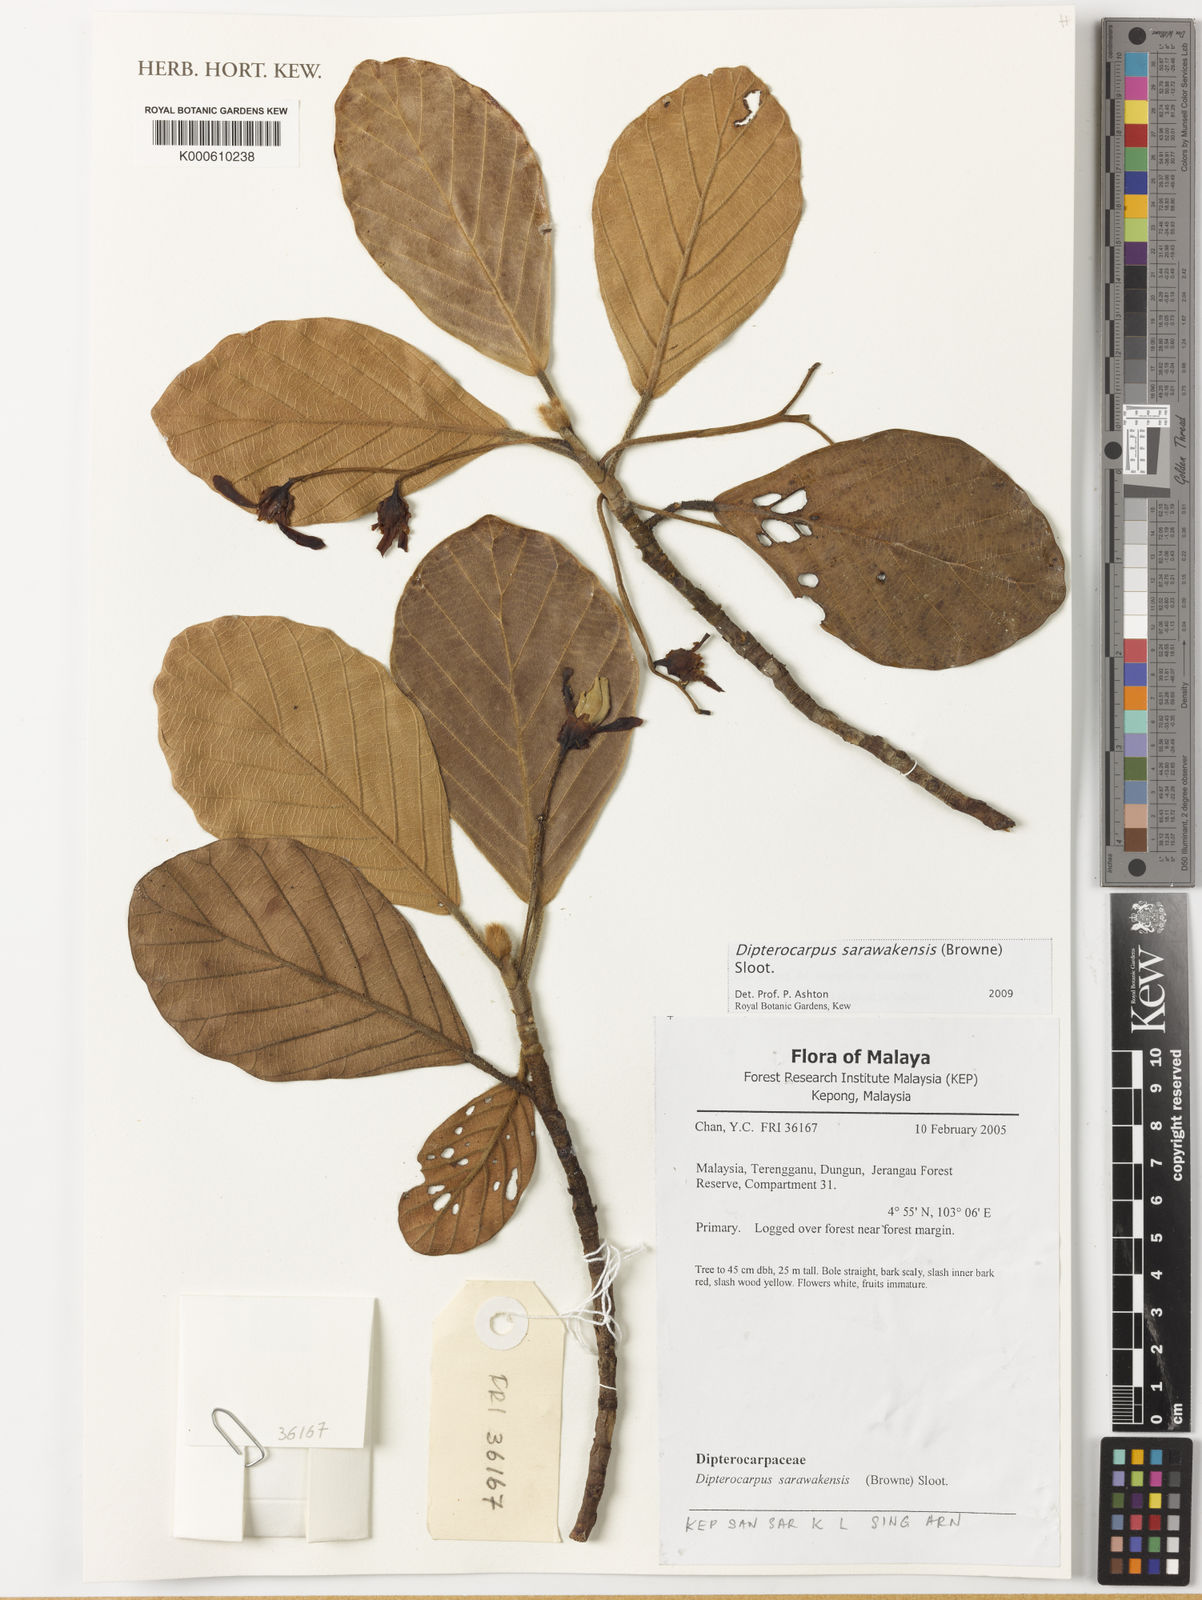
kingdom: Plantae
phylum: Tracheophyta
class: Magnoliopsida
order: Malvales
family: Dipterocarpaceae
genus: Dipterocarpus
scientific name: Dipterocarpus sarawakensis
